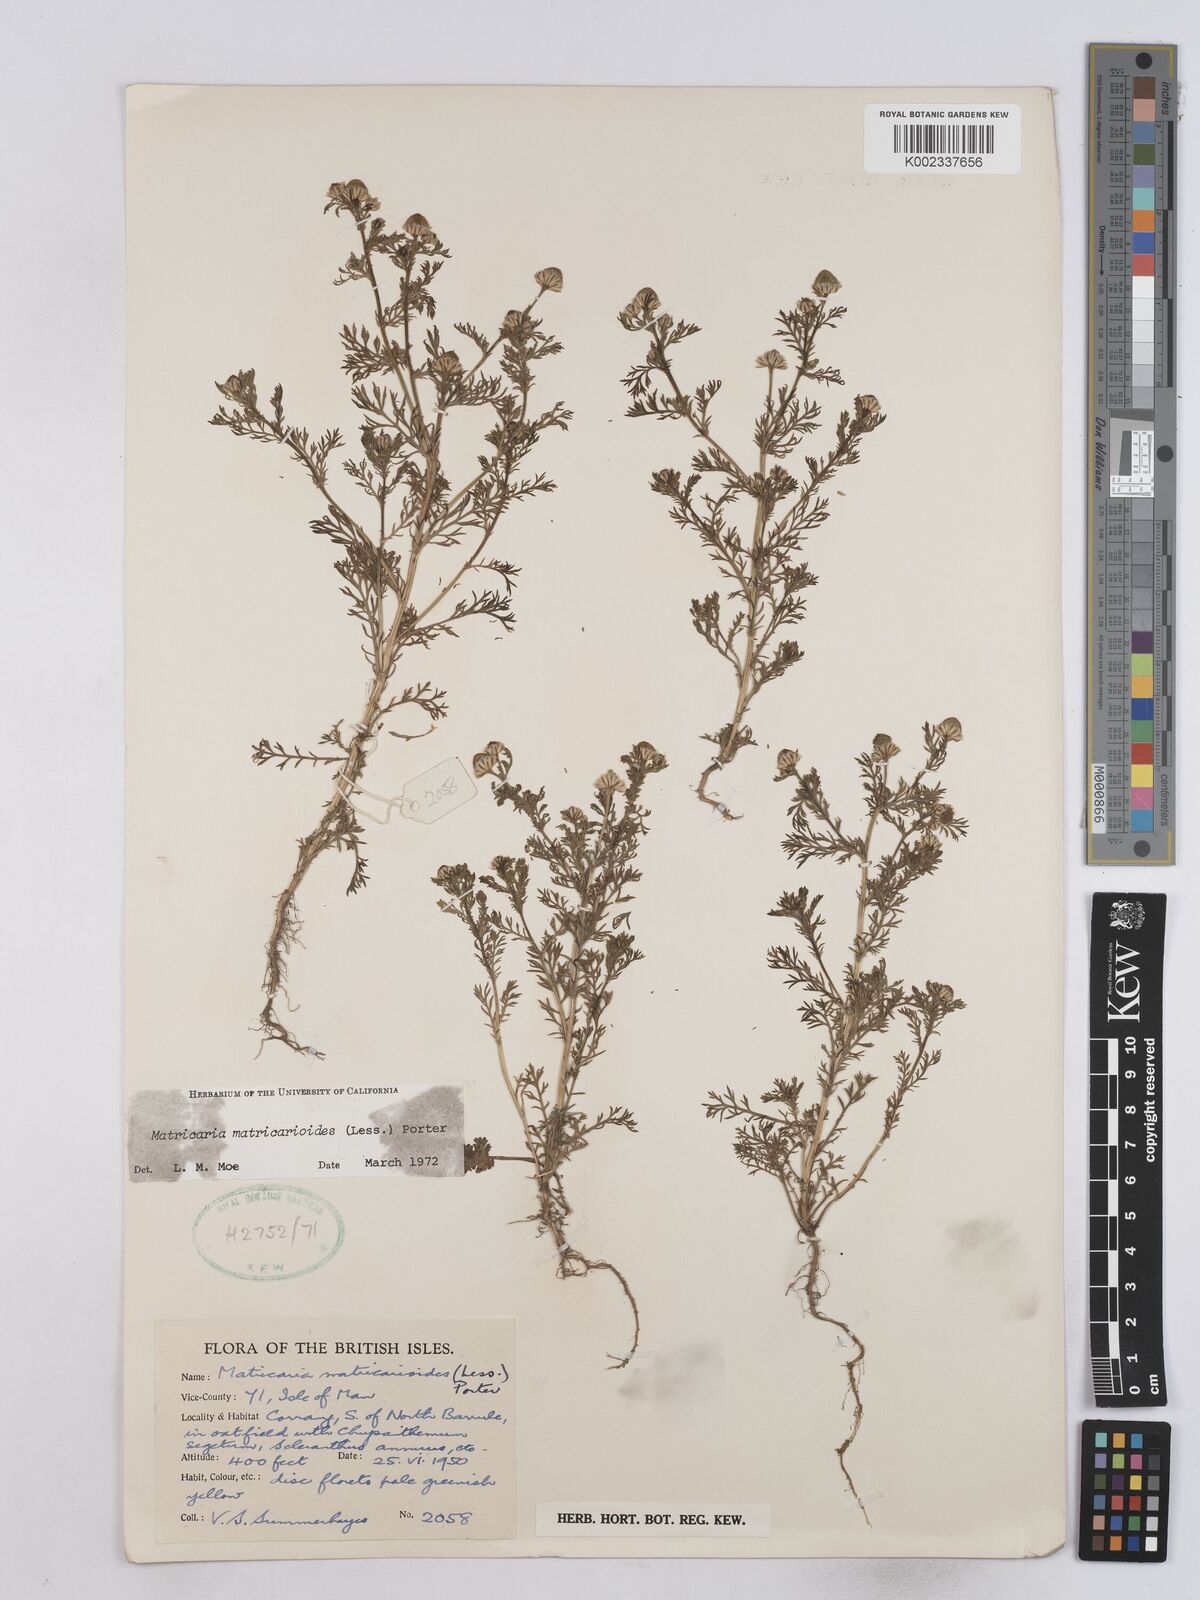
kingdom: Plantae
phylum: Tracheophyta
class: Magnoliopsida
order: Asterales
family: Asteraceae
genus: Matricaria
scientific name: Matricaria discoidea
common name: Disc mayweed
